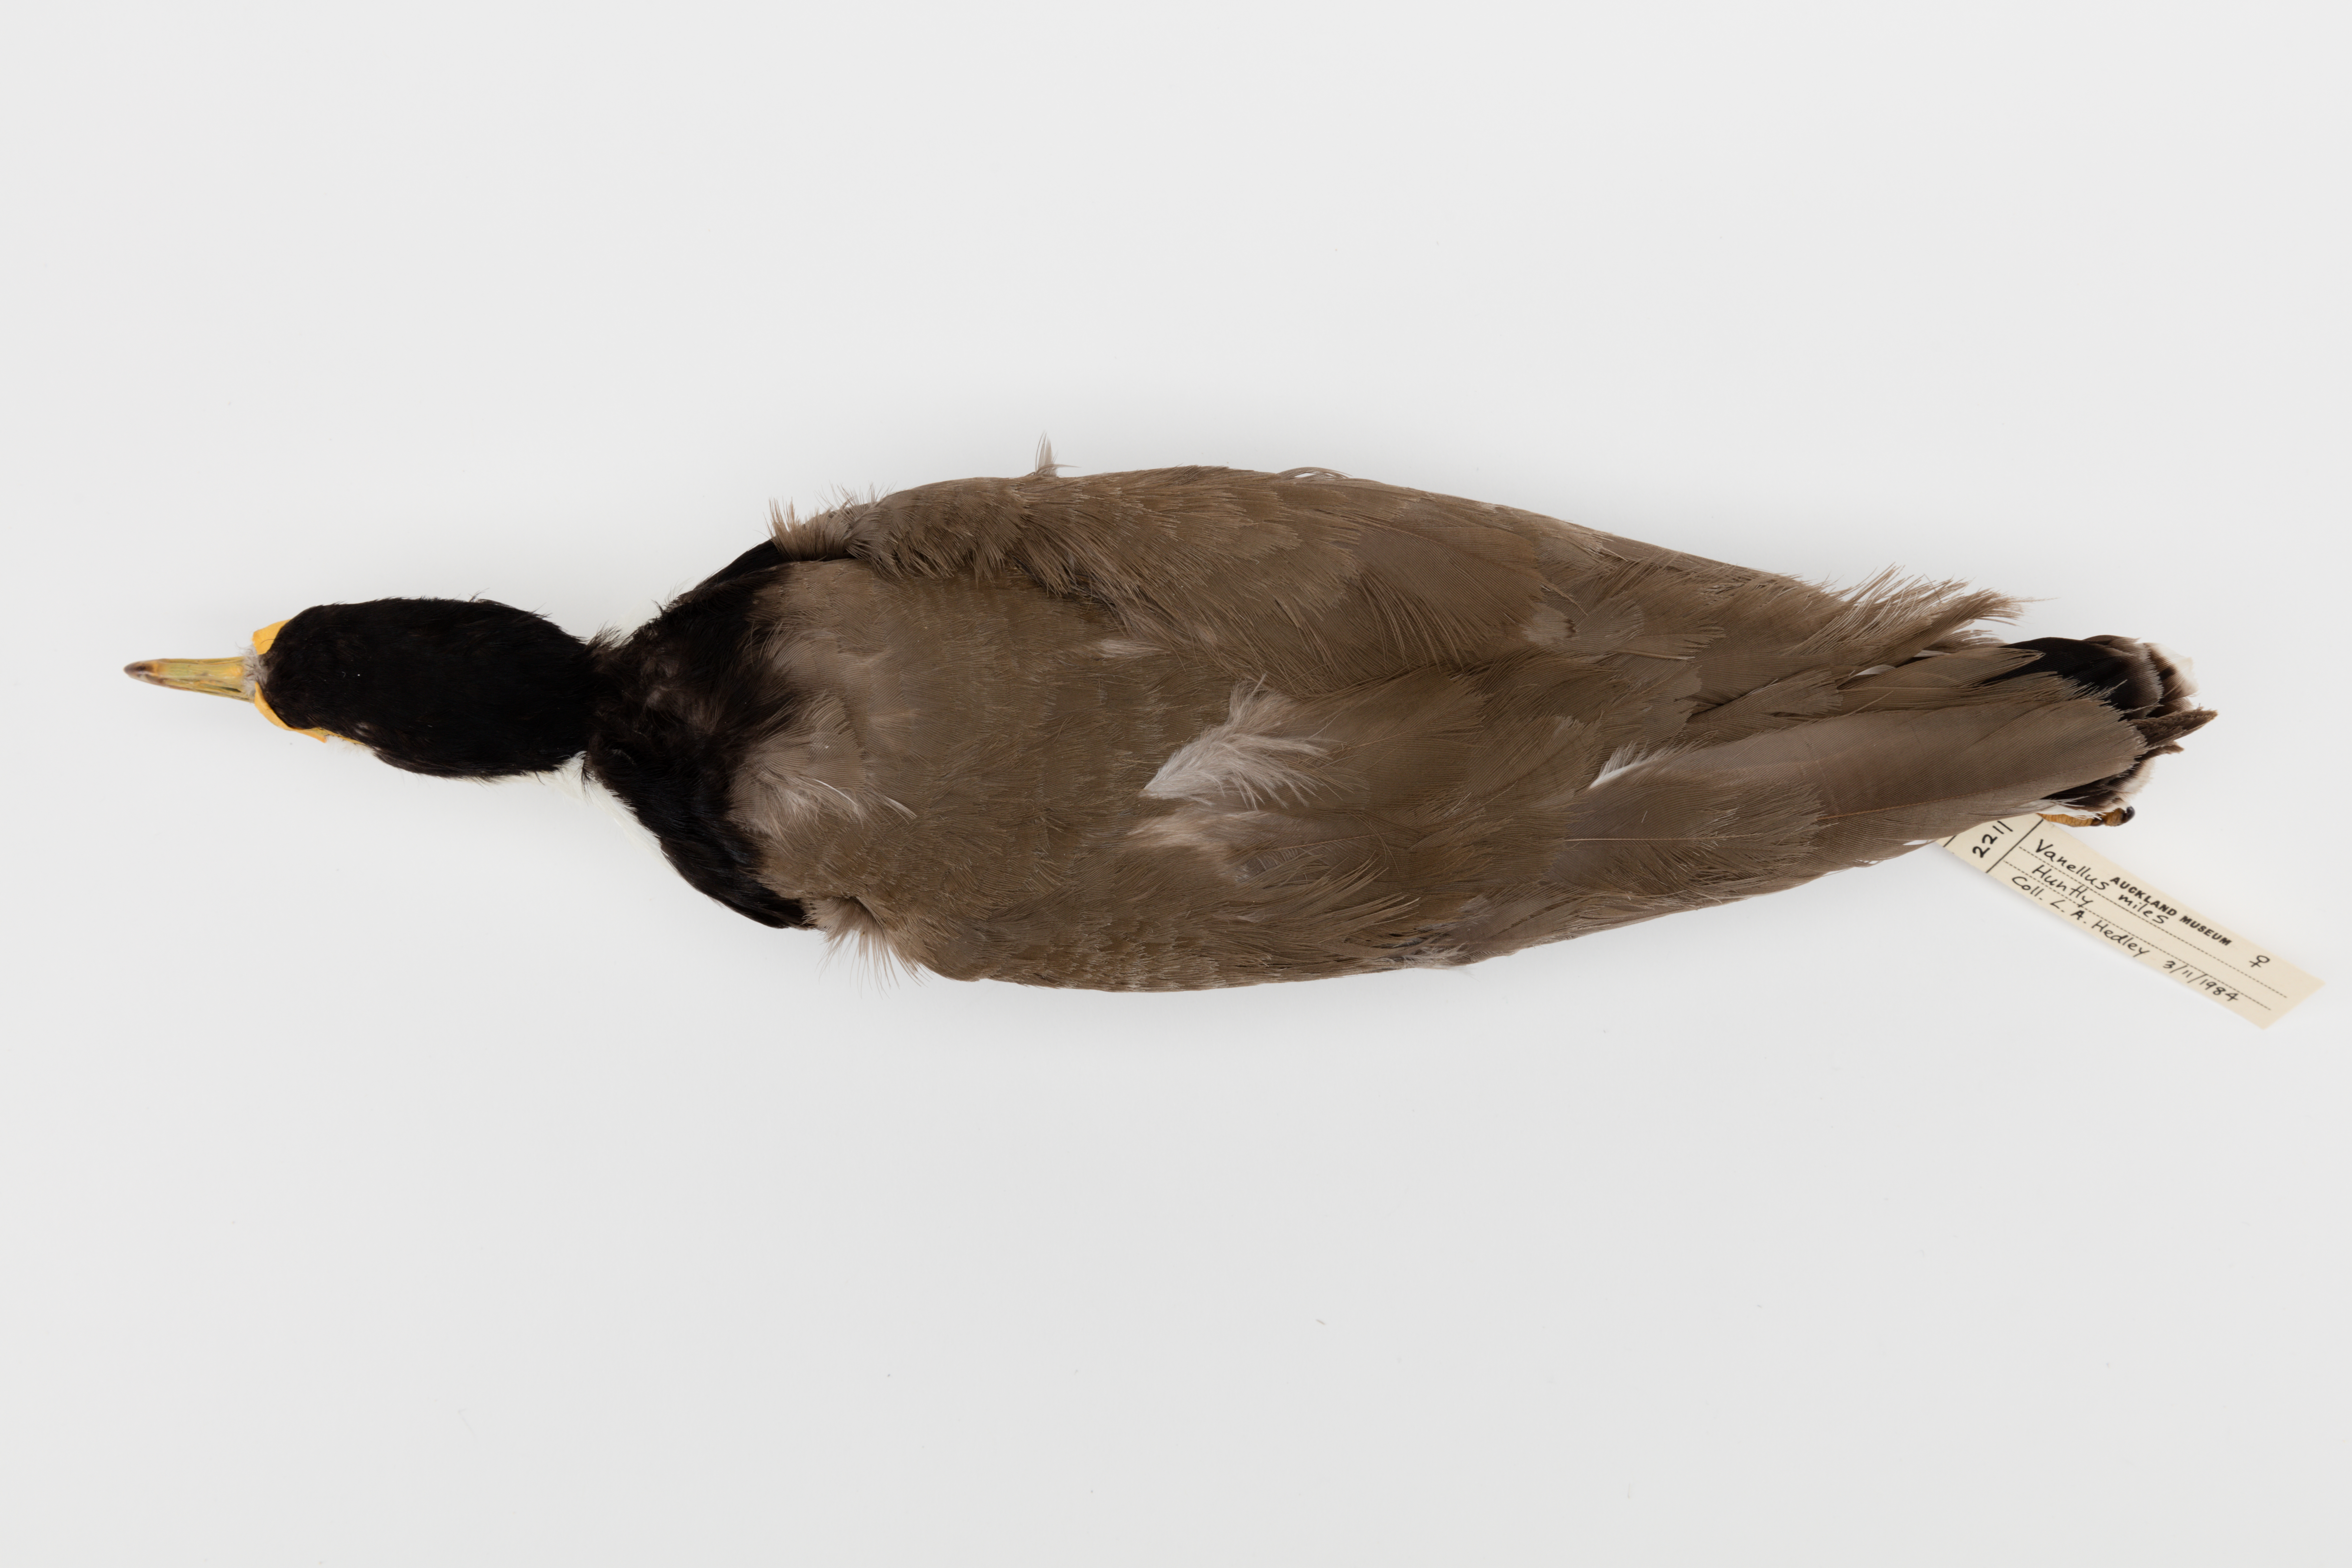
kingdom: Animalia
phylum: Chordata
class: Aves
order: Charadriiformes
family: Charadriidae
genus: Vanellus
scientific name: Vanellus miles
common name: Masked lapwing
